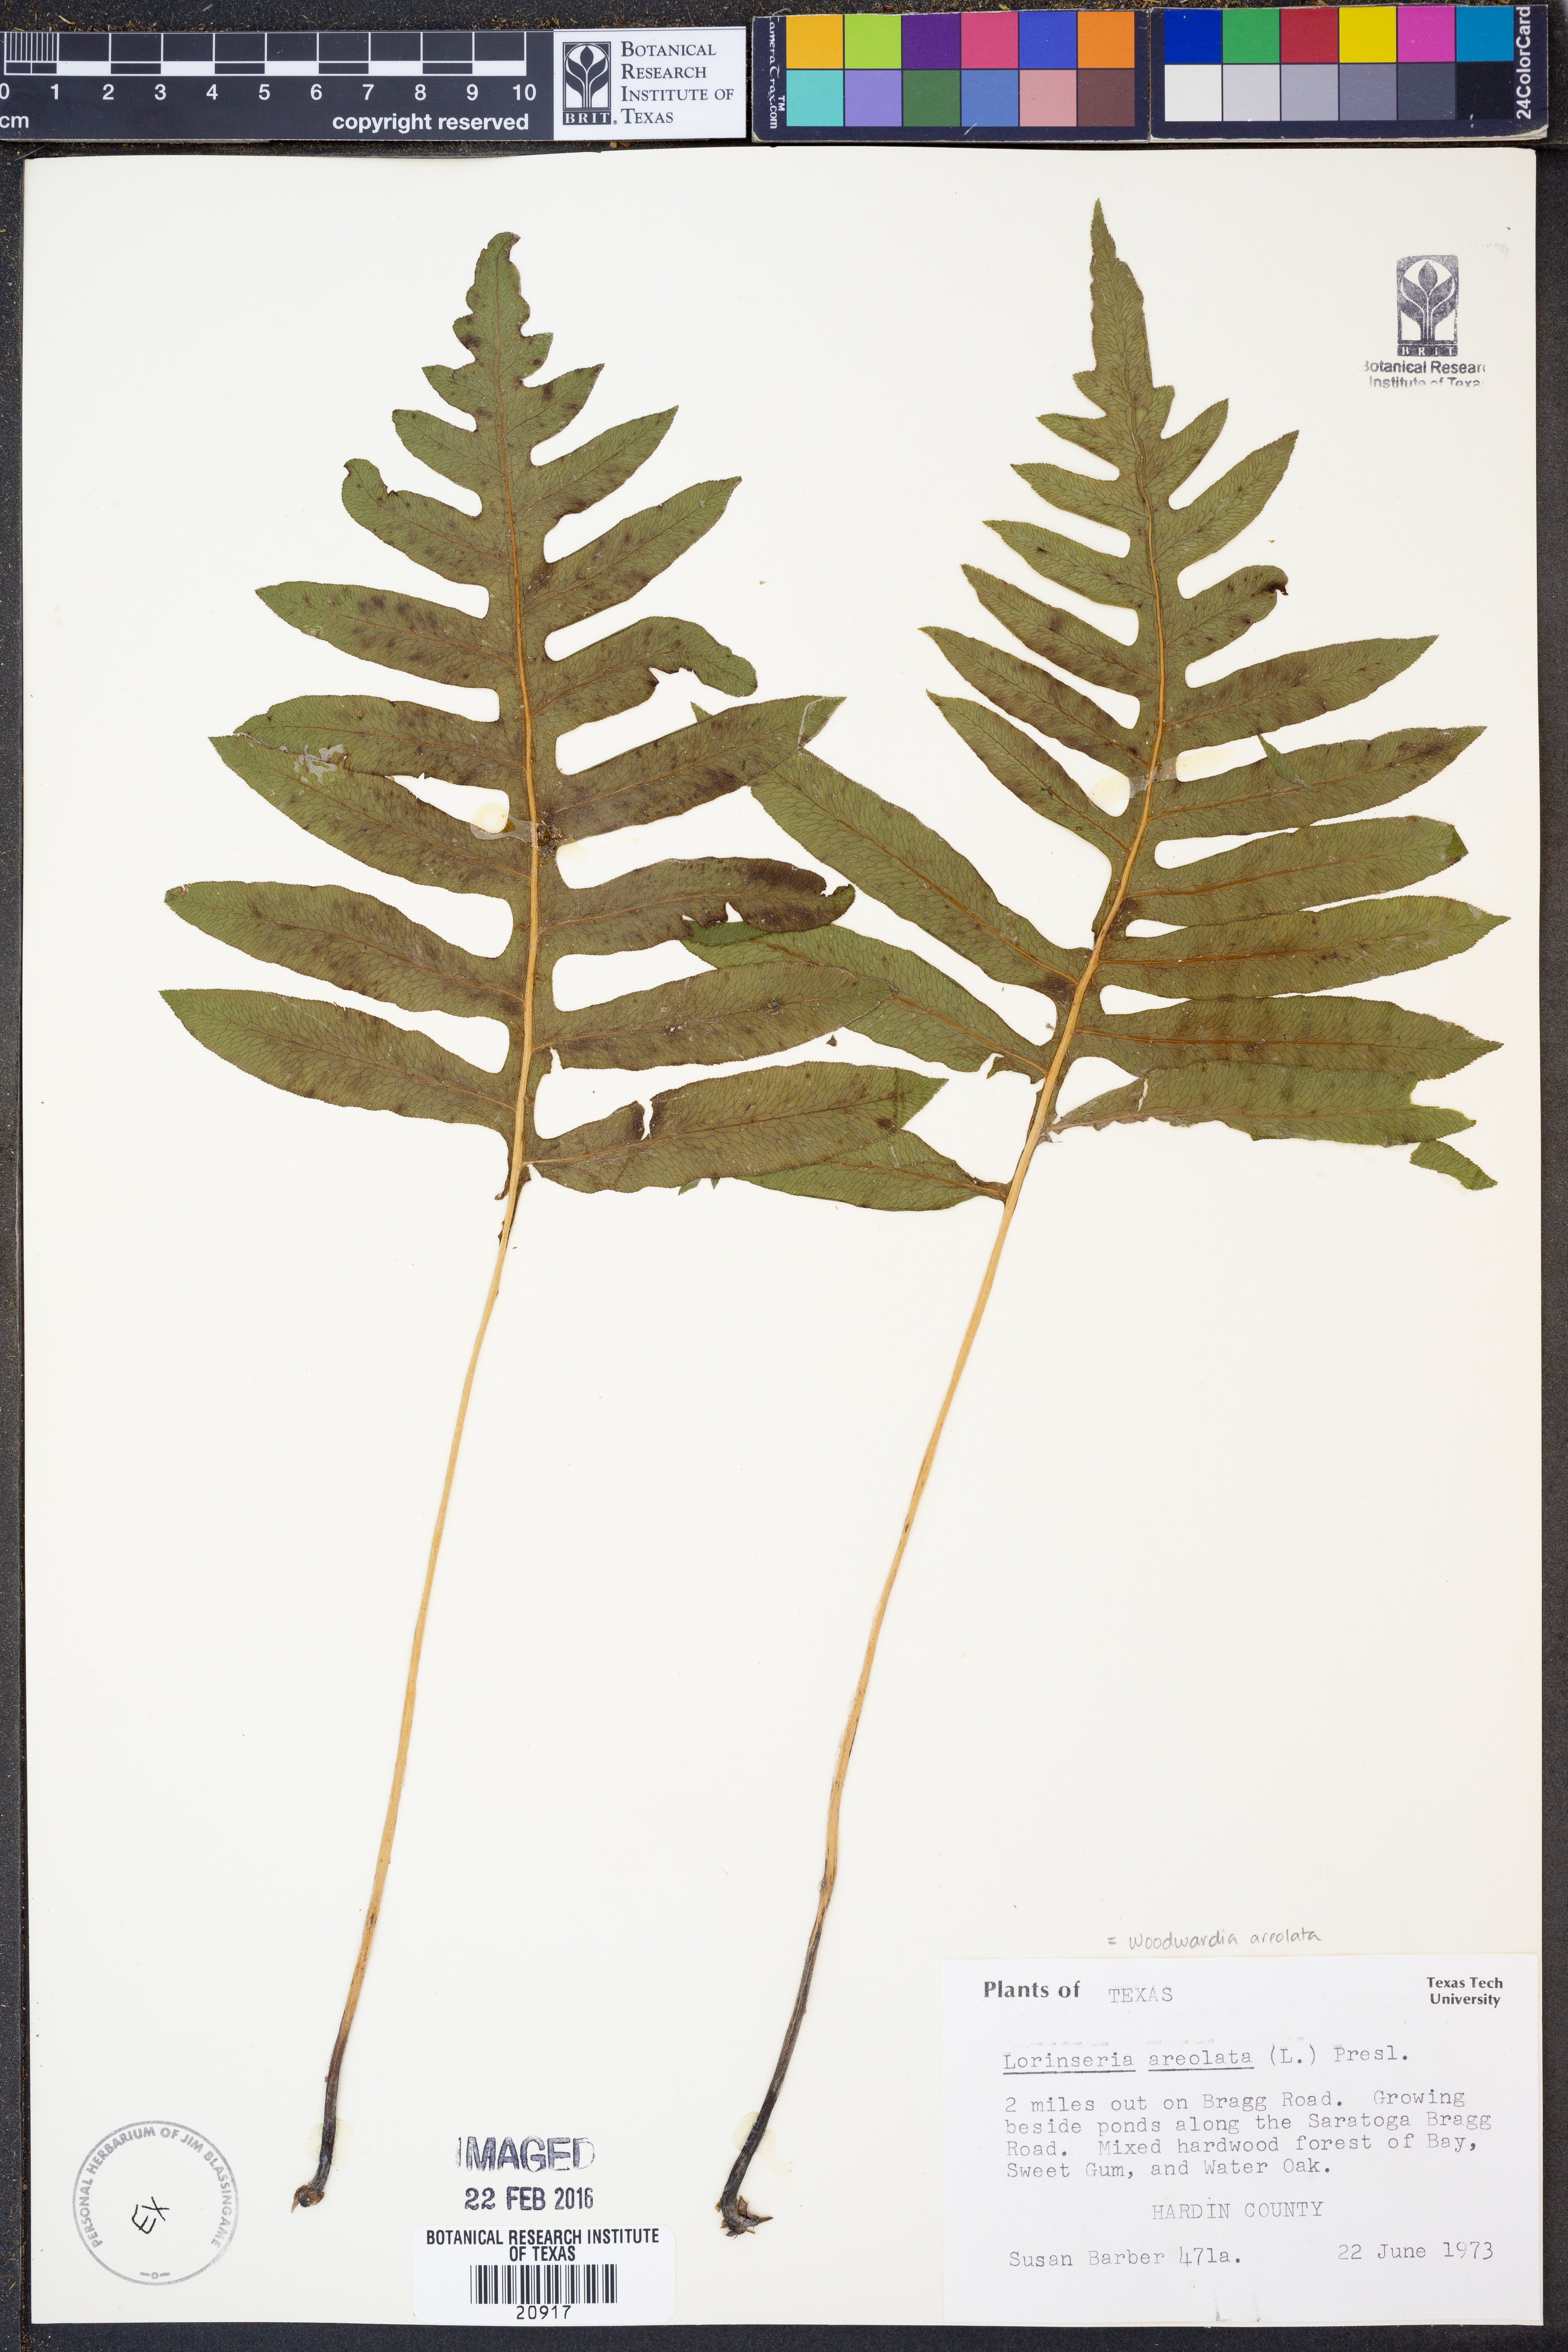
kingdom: Plantae
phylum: Tracheophyta
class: Polypodiopsida
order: Polypodiales
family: Blechnaceae
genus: Lorinseria
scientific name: Lorinseria areolata
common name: Dwarf chain fern
